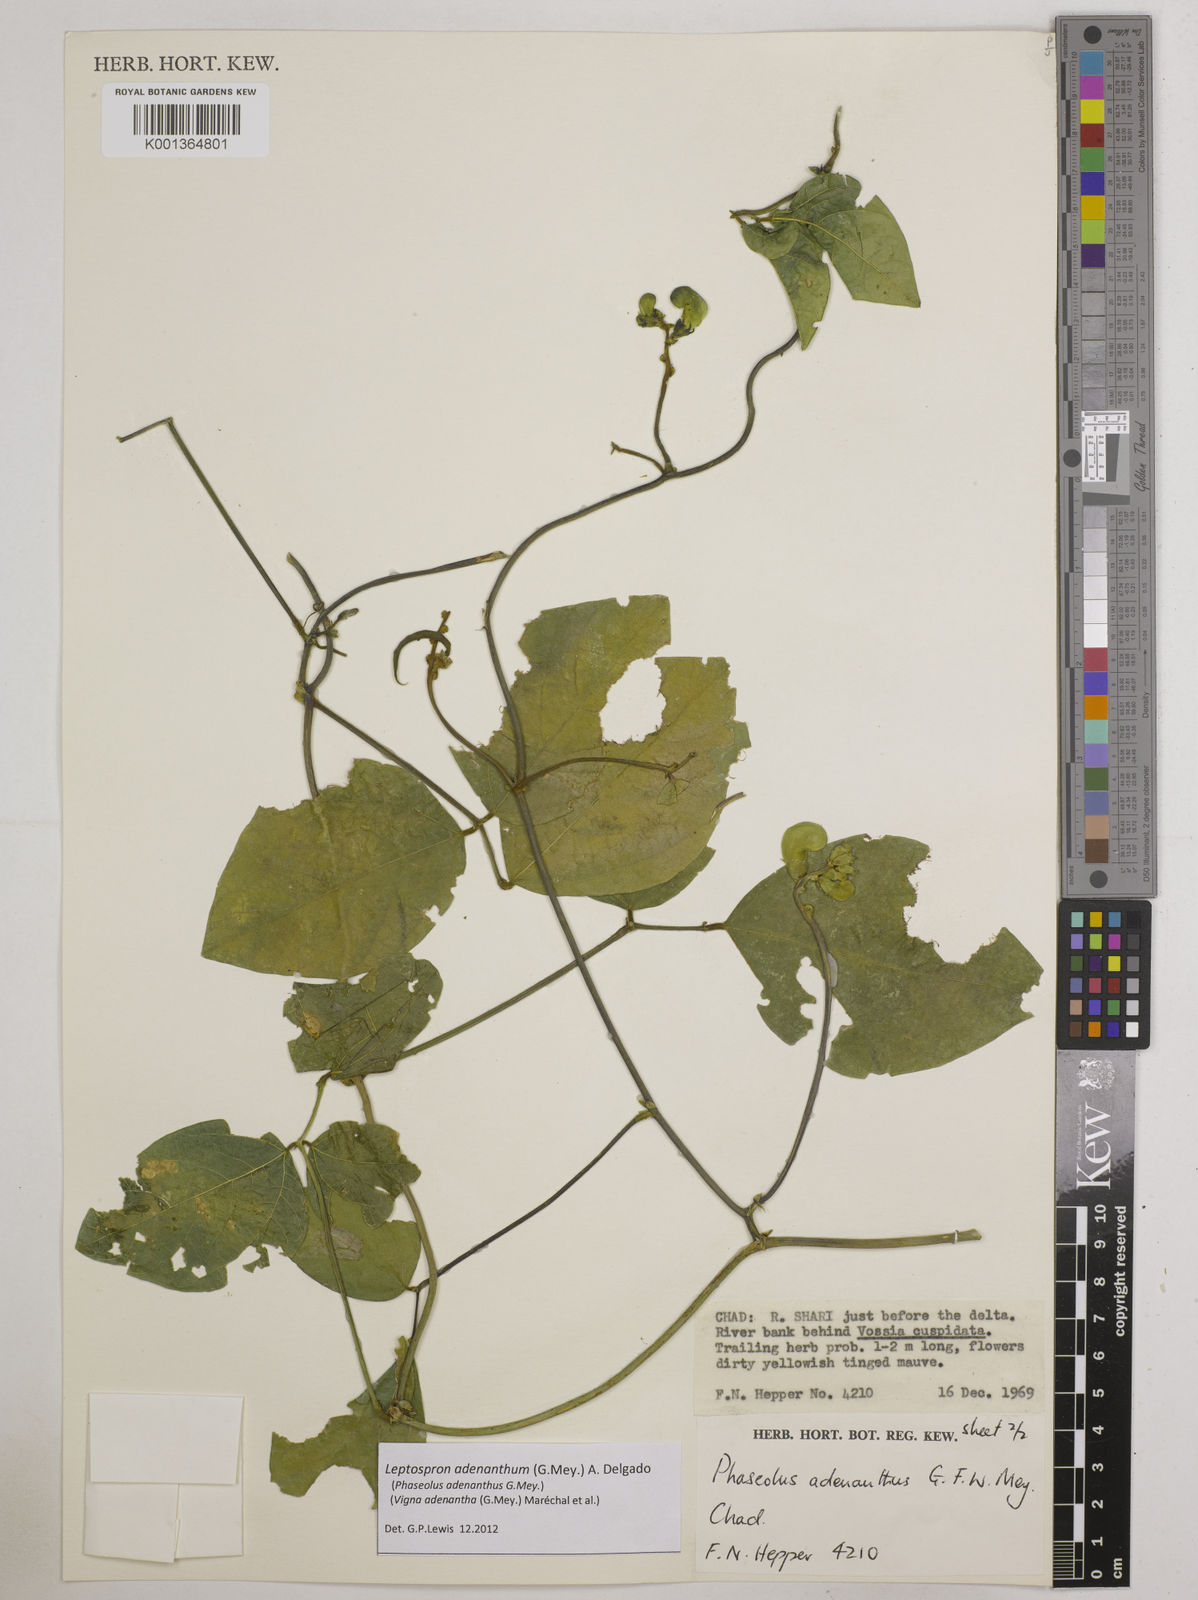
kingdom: Plantae
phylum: Tracheophyta
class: Magnoliopsida
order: Fabales
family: Fabaceae
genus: Leptospron
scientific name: Leptospron adenanthum
